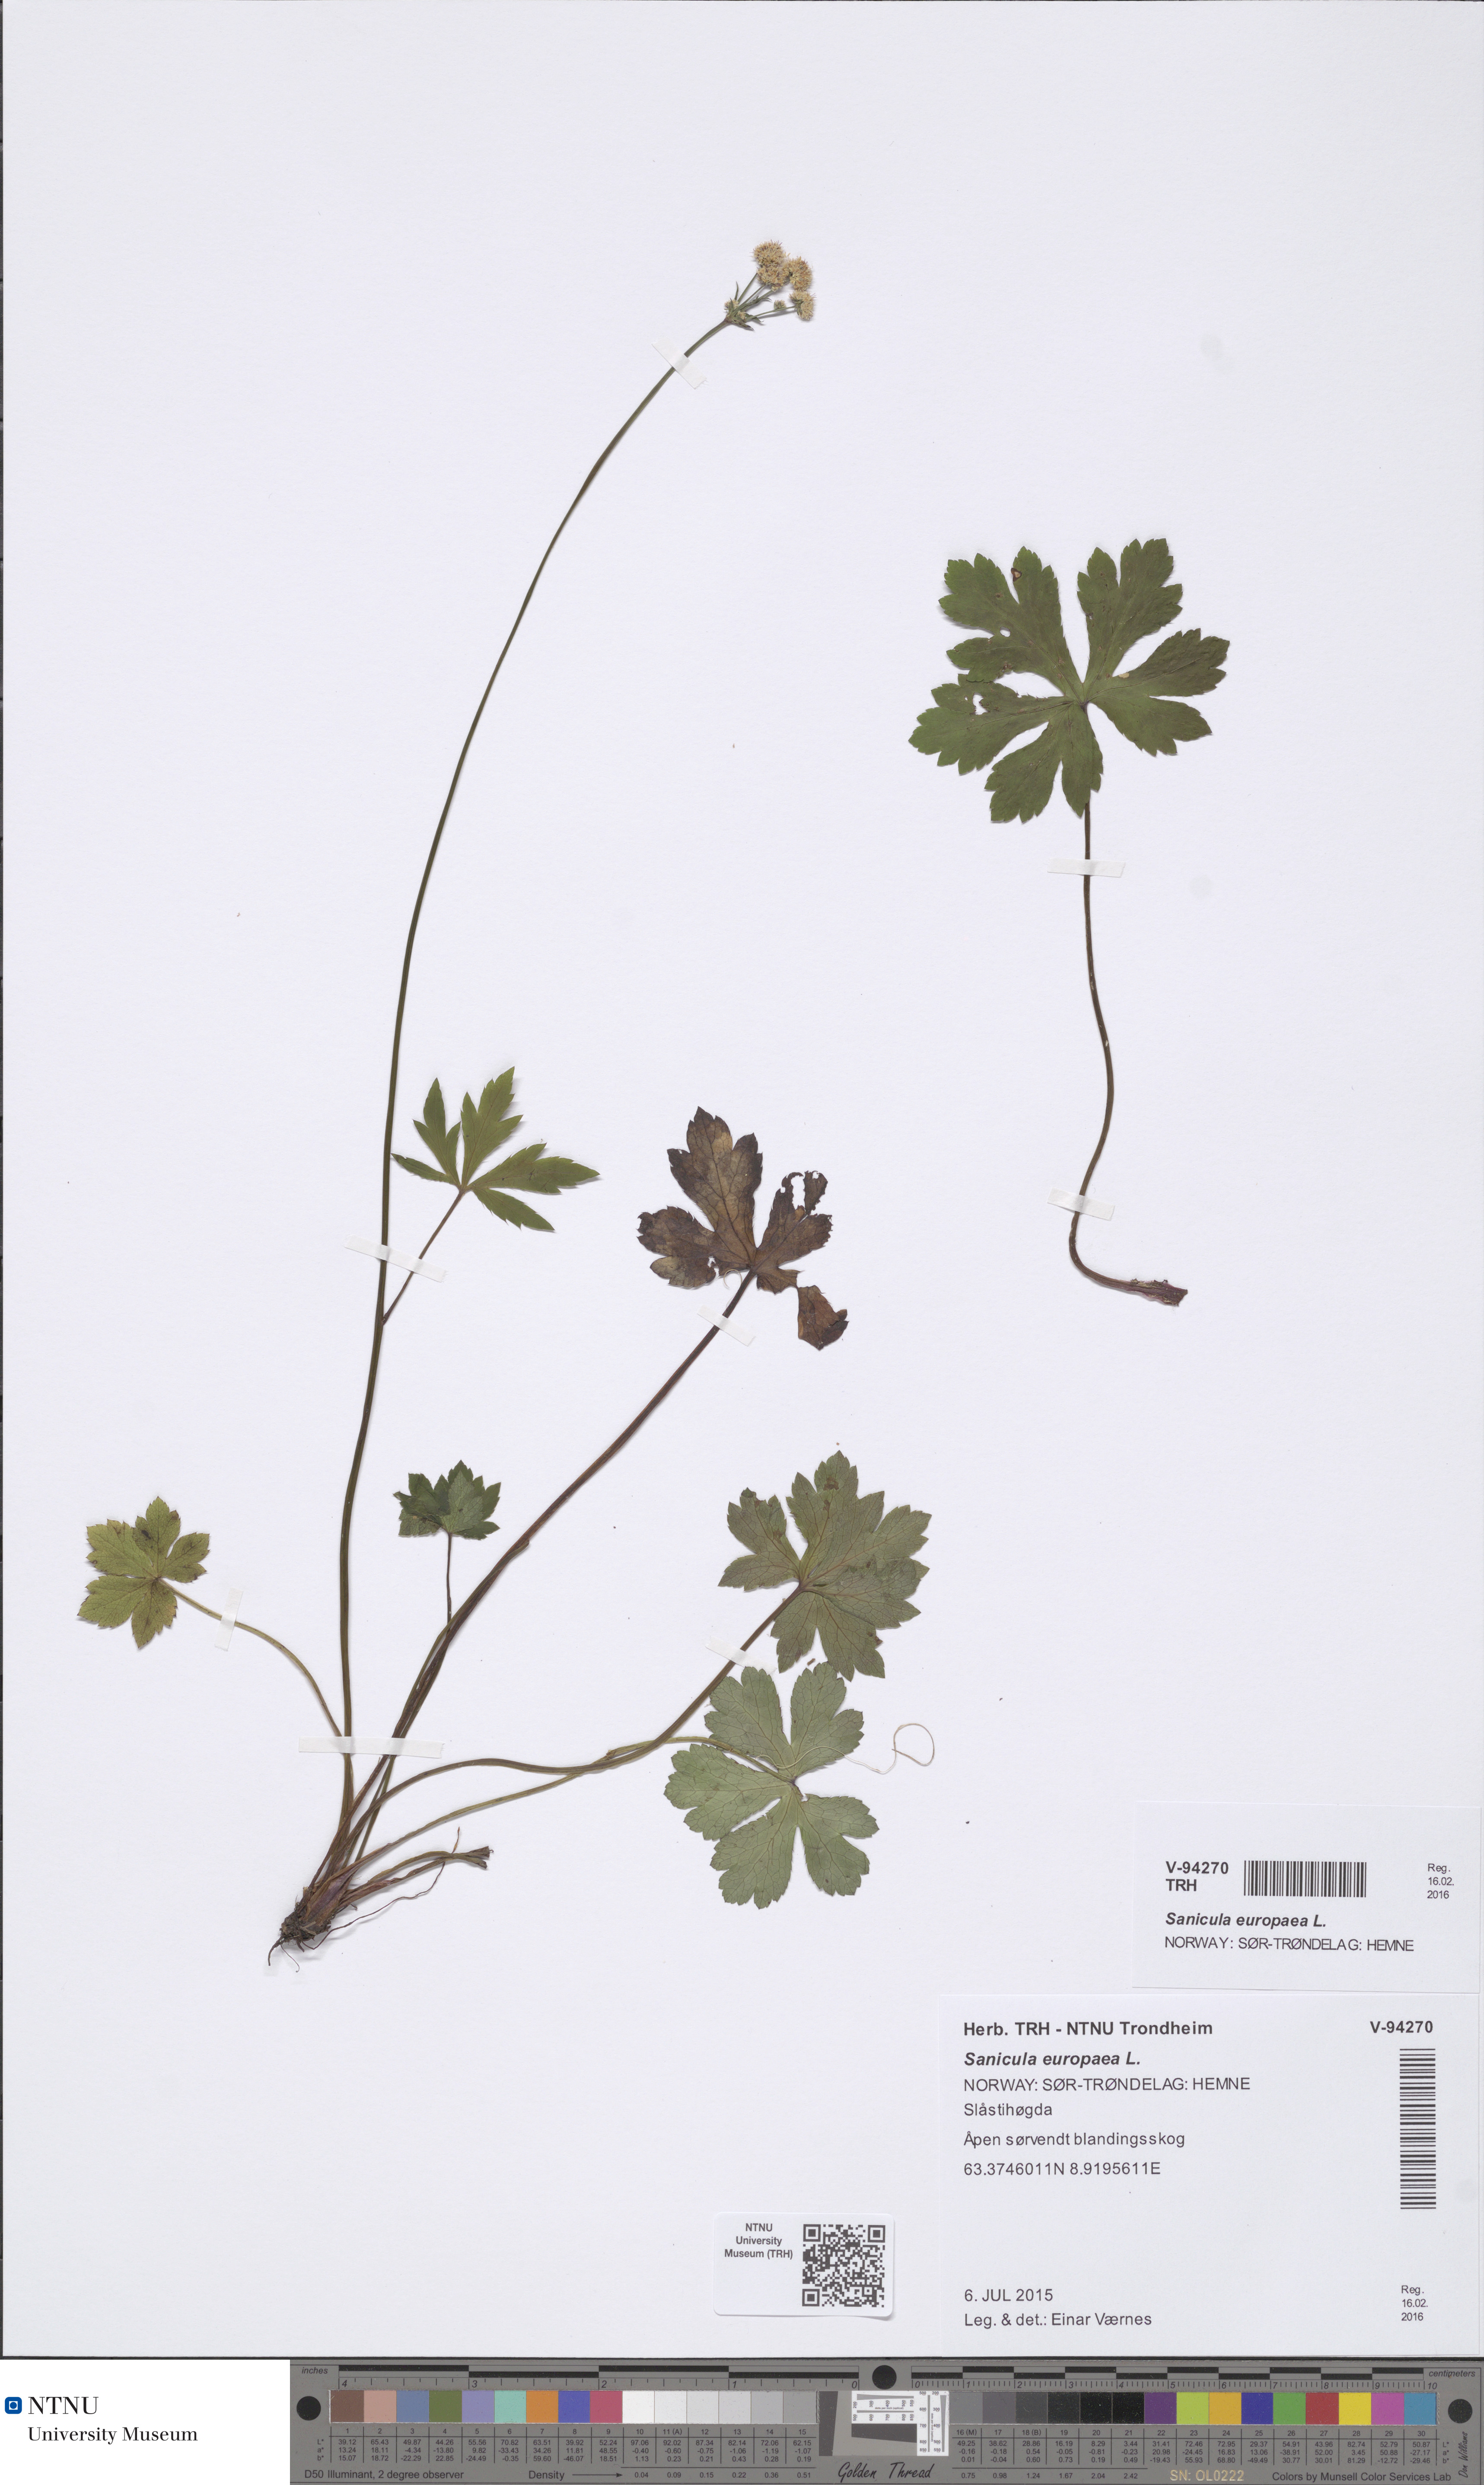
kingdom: Plantae
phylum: Tracheophyta
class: Magnoliopsida
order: Apiales
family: Apiaceae
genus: Sanicula
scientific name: Sanicula europaea
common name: Sanicle
